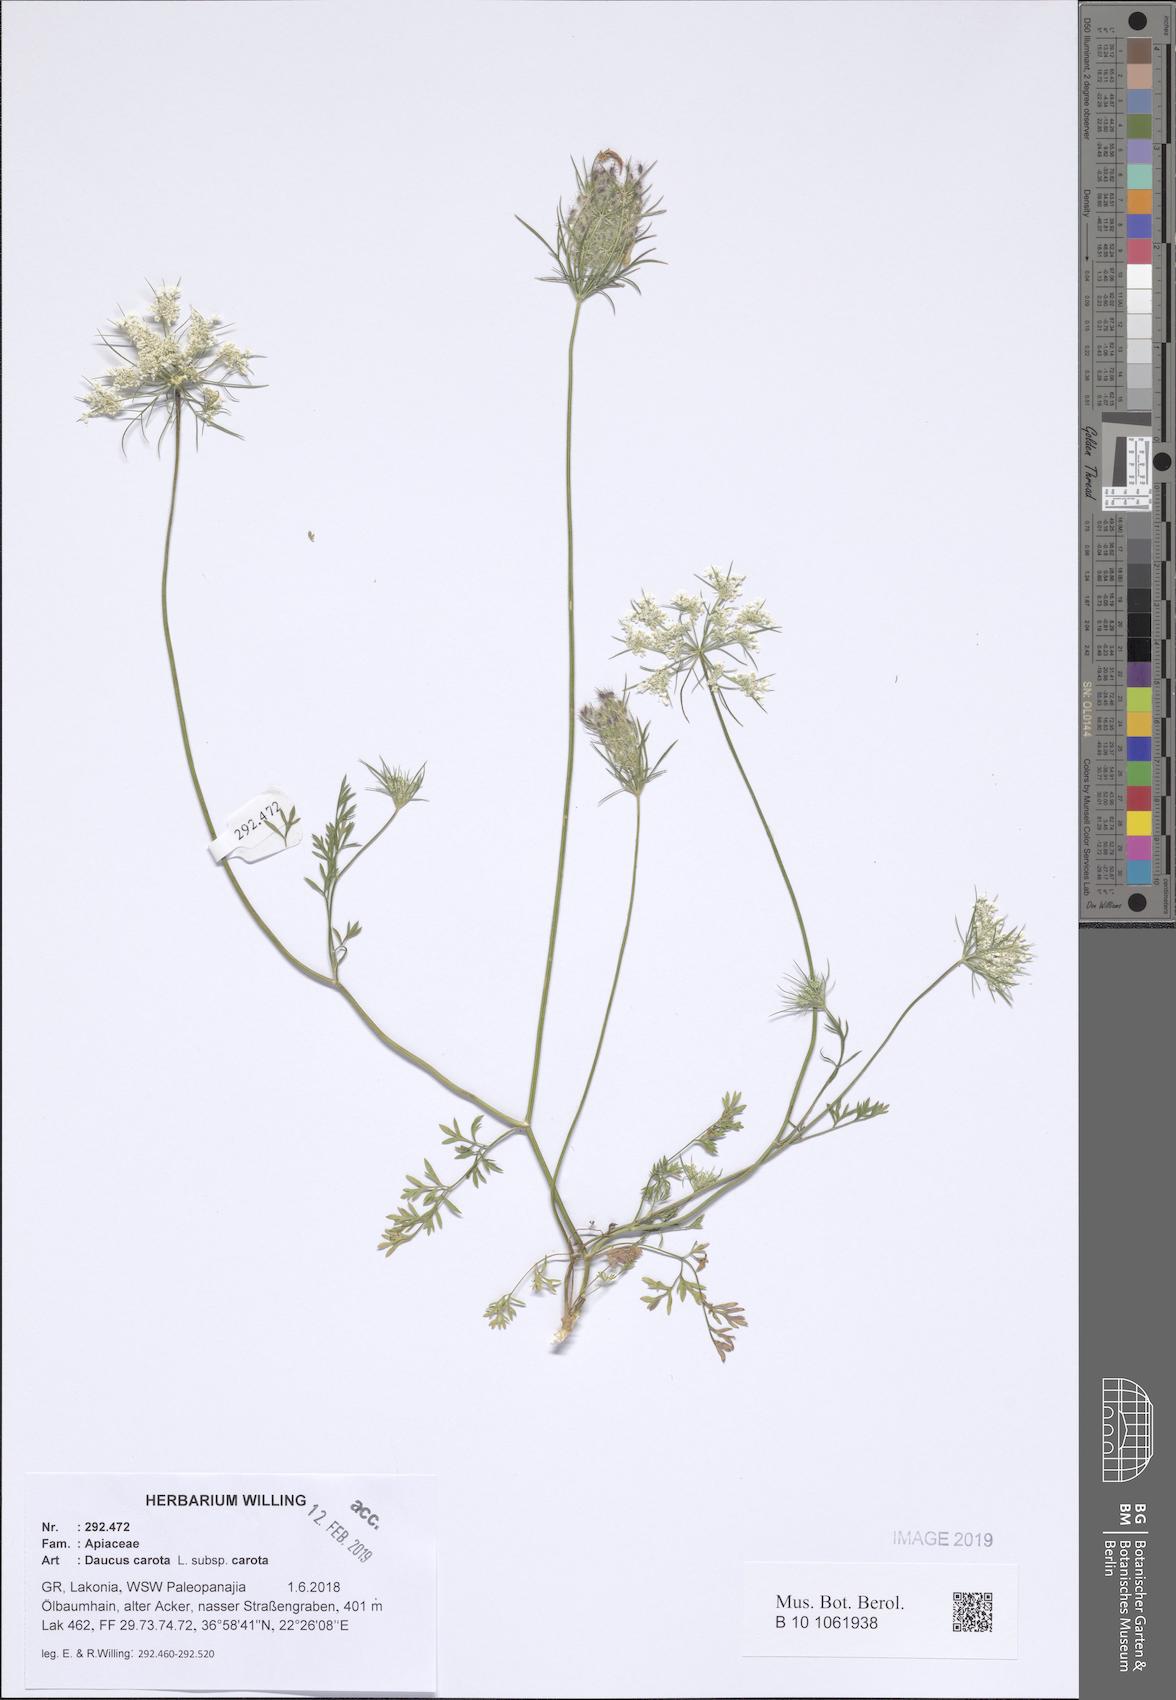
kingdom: Plantae
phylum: Tracheophyta
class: Magnoliopsida
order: Apiales
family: Apiaceae
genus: Daucus
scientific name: Daucus carota
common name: Wild carrot
